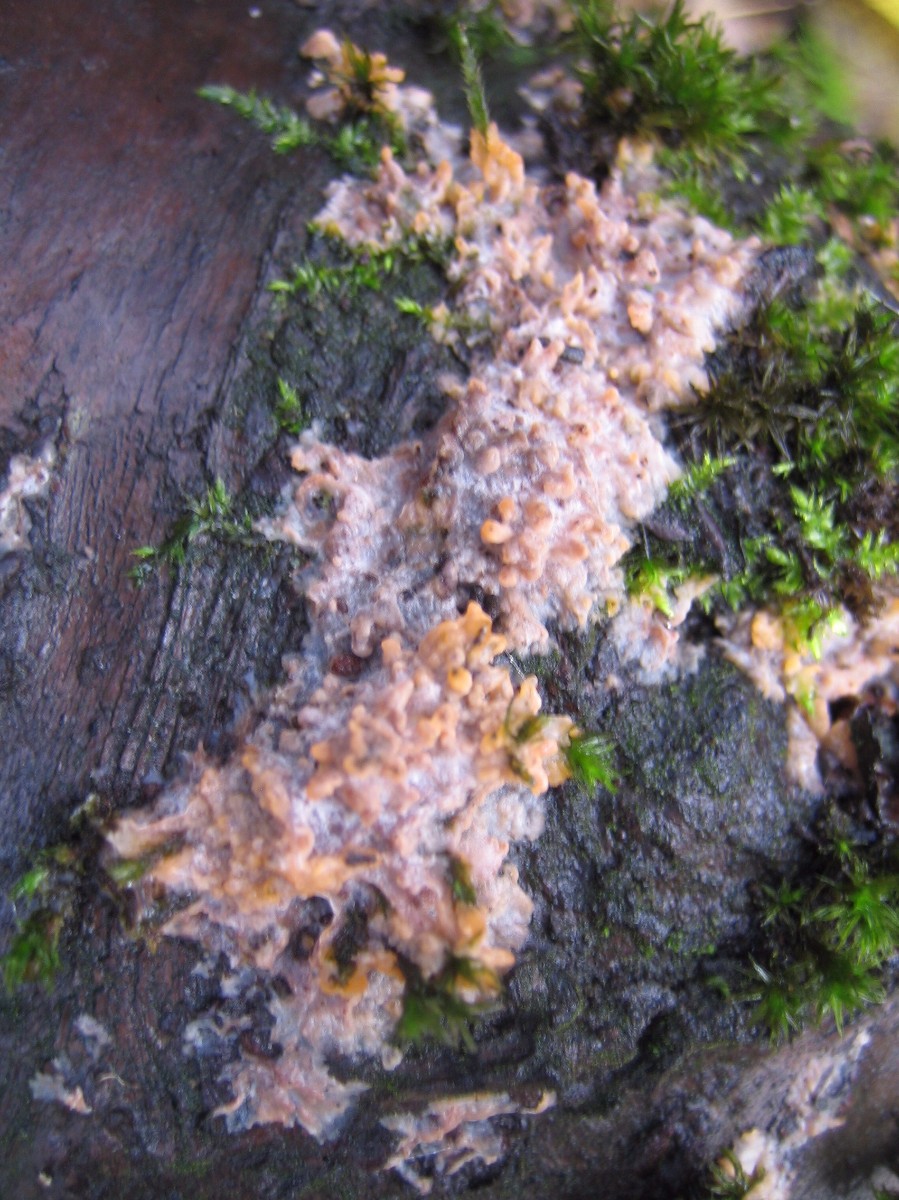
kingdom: Fungi
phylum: Basidiomycota
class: Agaricomycetes
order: Polyporales
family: Meruliaceae
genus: Phlebia
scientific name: Phlebia radiata
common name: stråle-åresvamp
